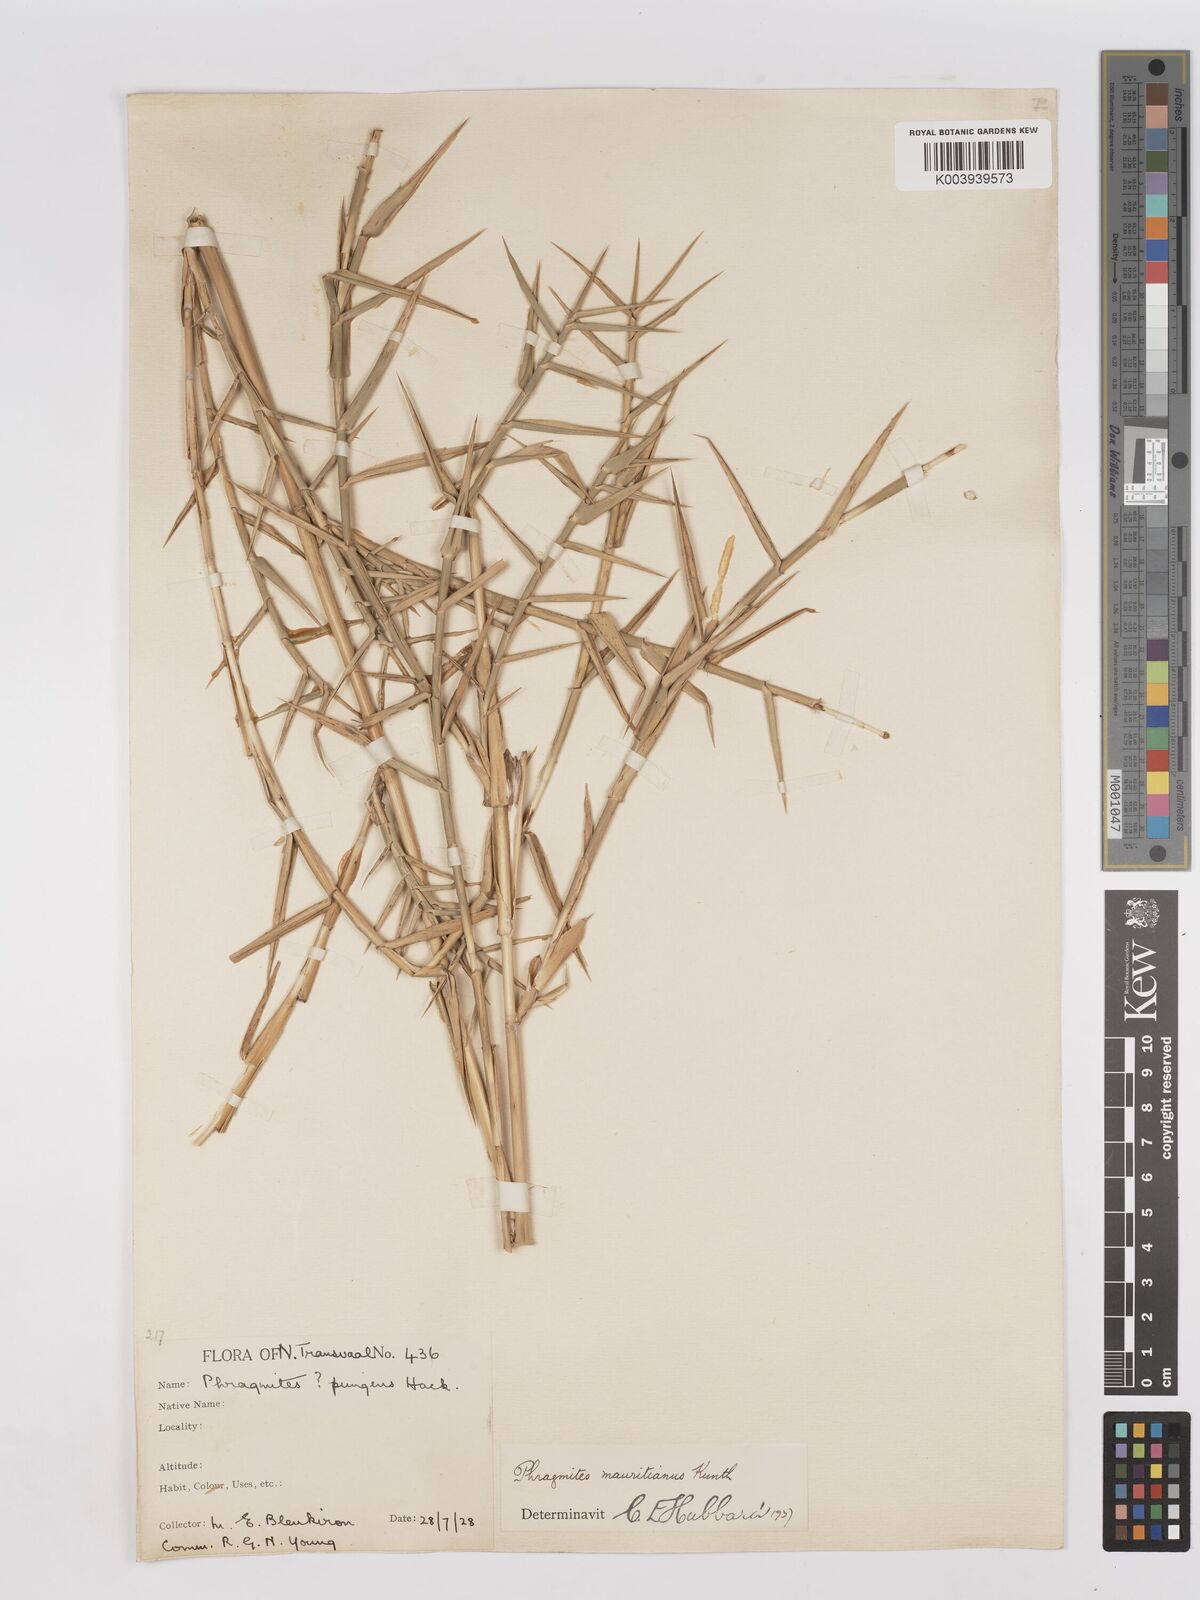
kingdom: Plantae
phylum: Tracheophyta
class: Liliopsida
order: Poales
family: Poaceae
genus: Phragmites
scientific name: Phragmites mauritianus
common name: Reed grass
